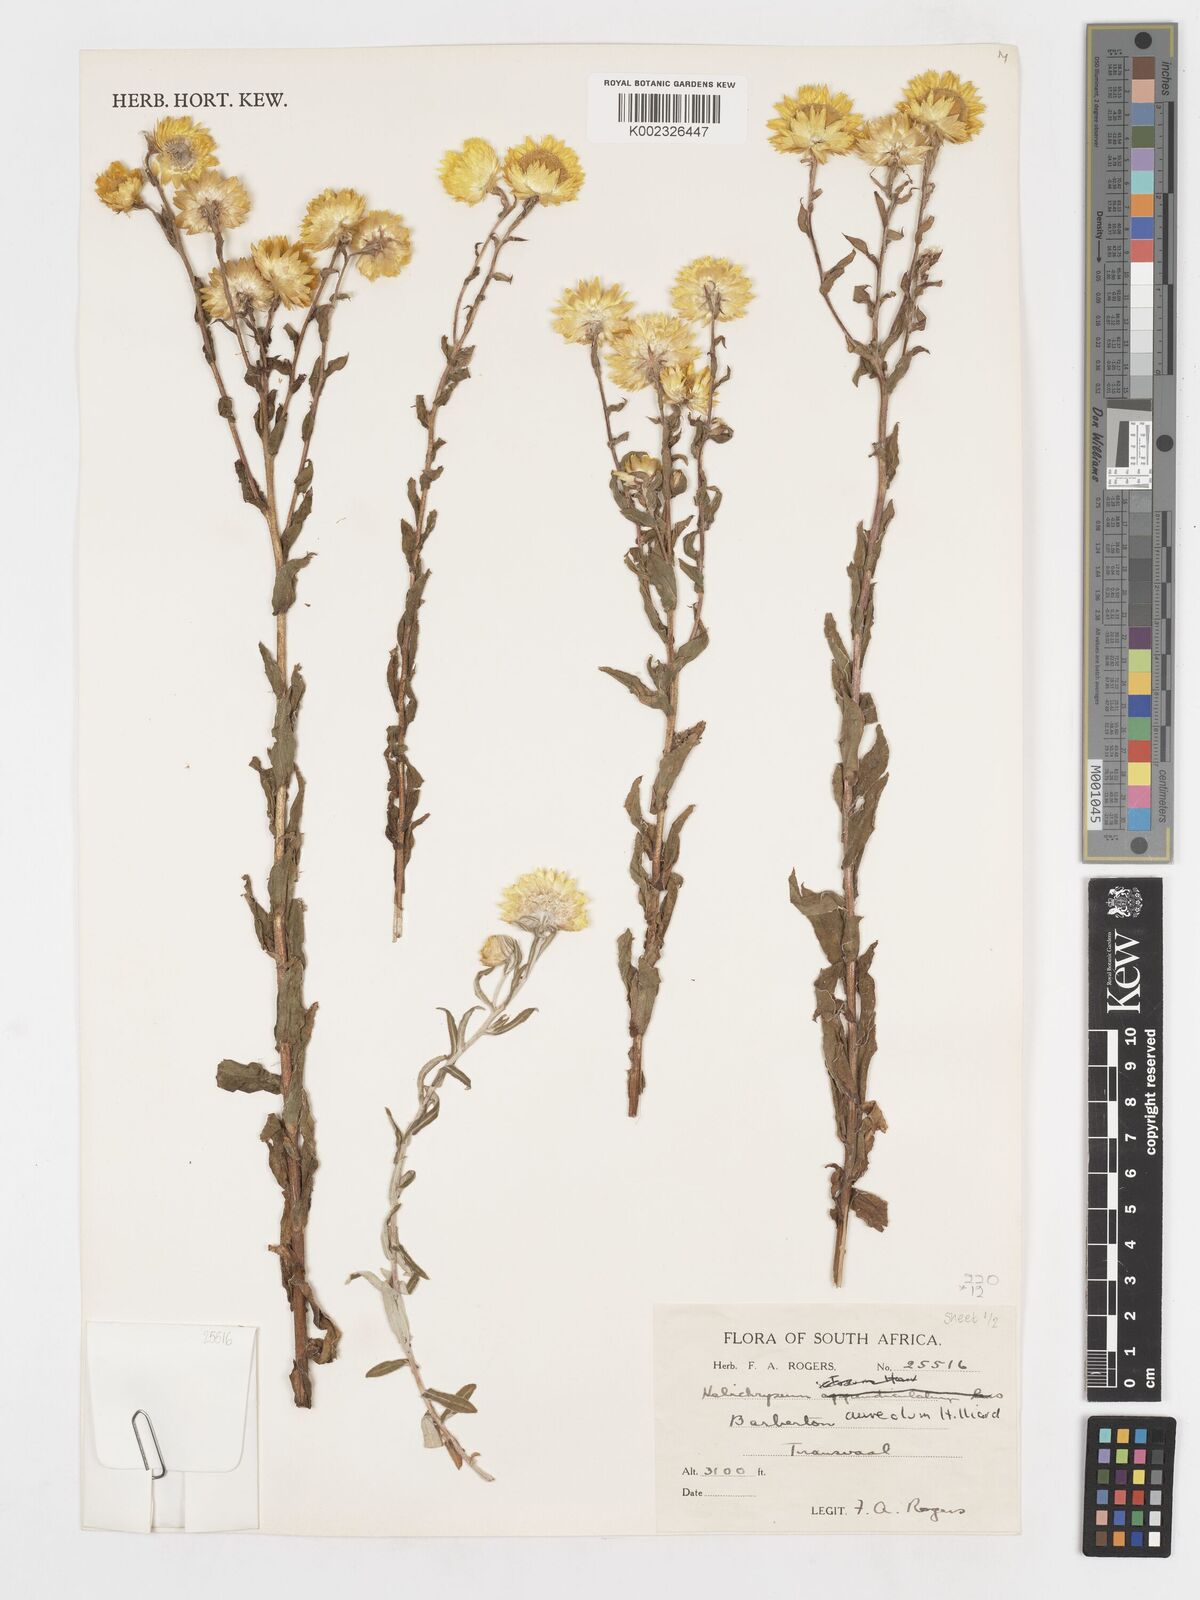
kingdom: Plantae
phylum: Tracheophyta
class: Magnoliopsida
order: Asterales
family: Asteraceae
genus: Helichrysum
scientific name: Helichrysum aureolum
